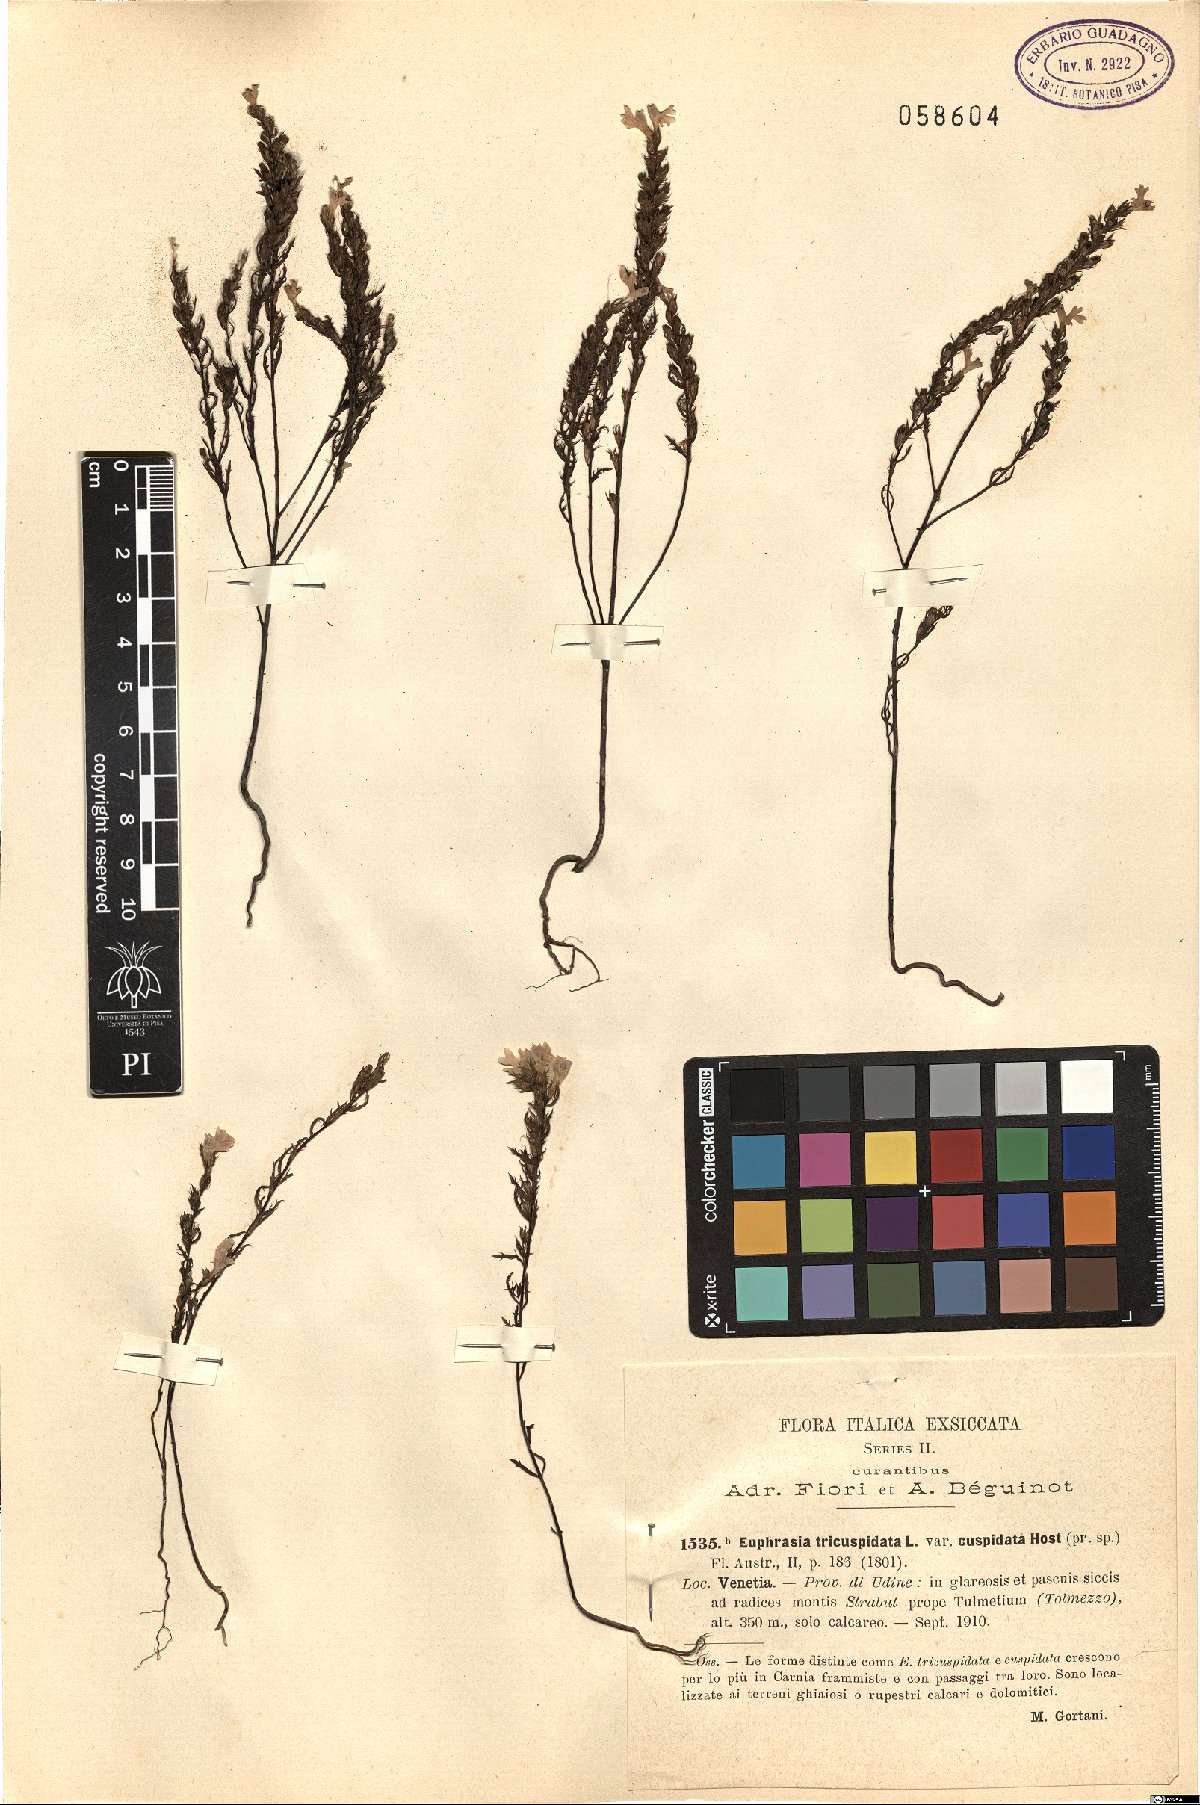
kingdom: Plantae
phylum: Tracheophyta
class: Magnoliopsida
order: Lamiales
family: Orobanchaceae
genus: Euphrasia
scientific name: Euphrasia cuspidata
